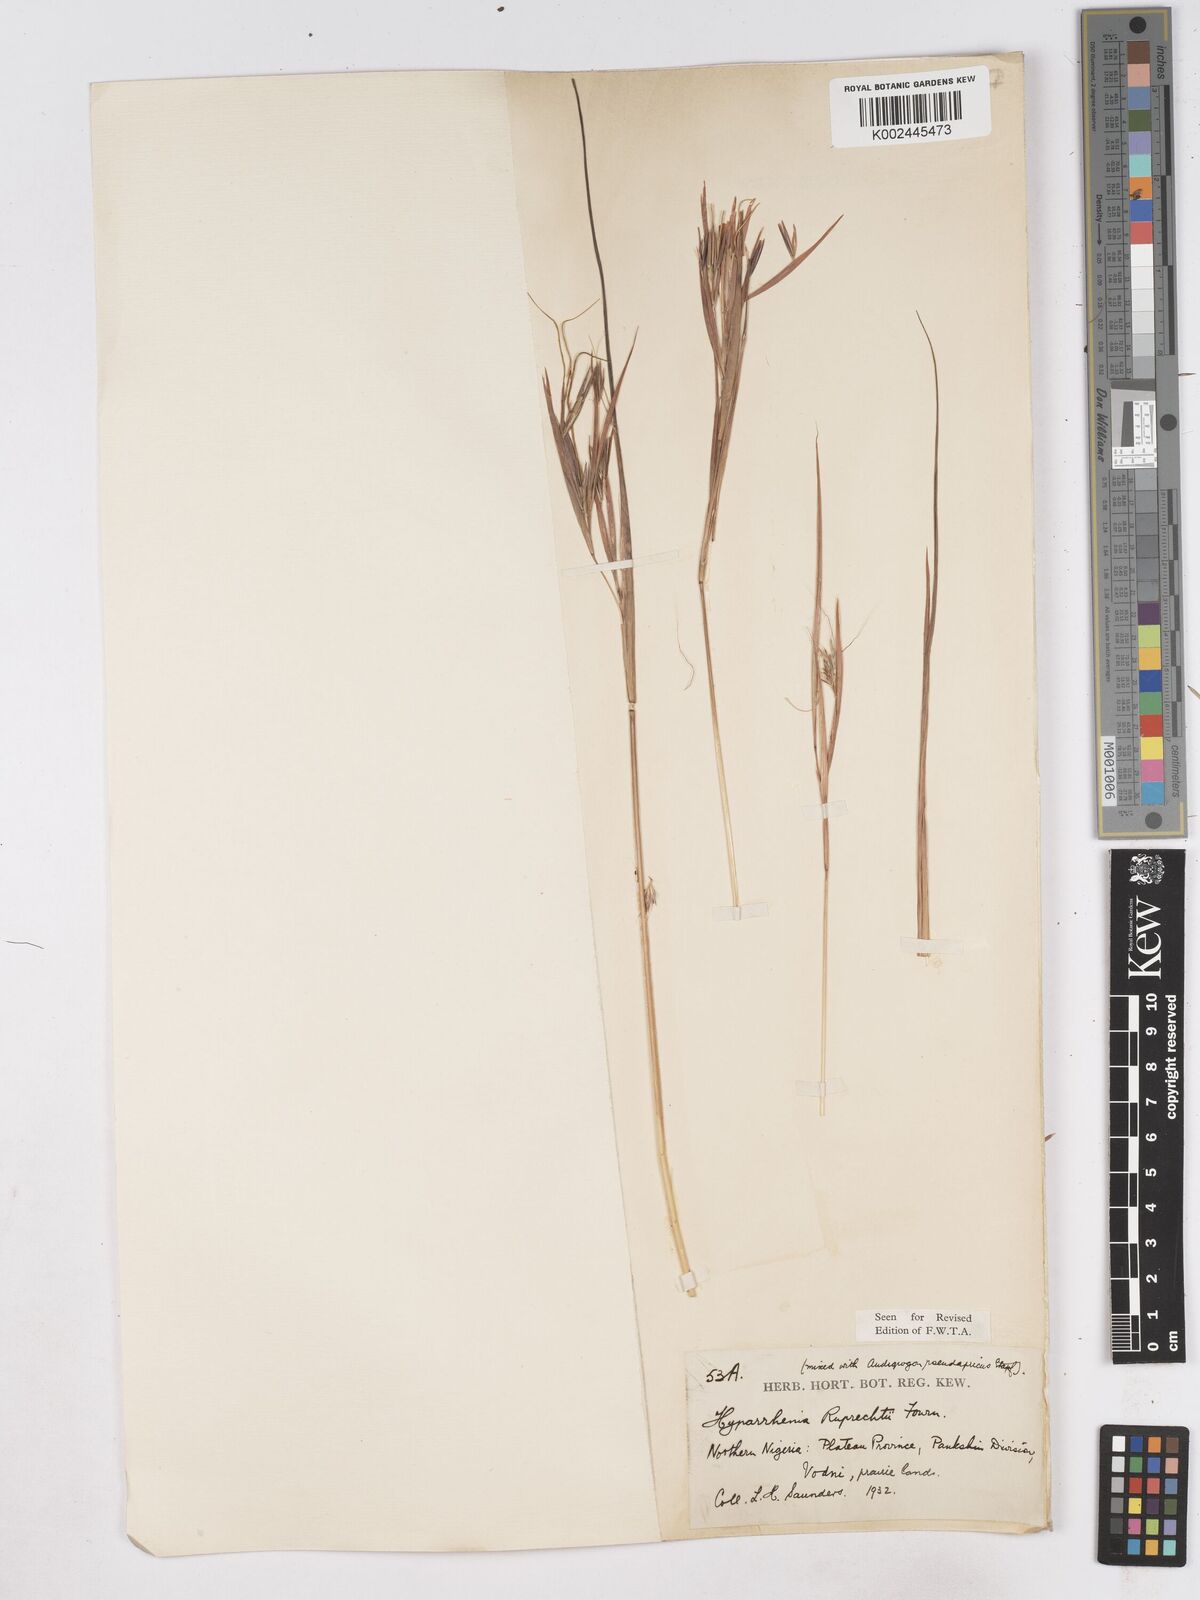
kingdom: Plantae
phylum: Tracheophyta
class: Liliopsida
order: Poales
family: Poaceae
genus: Hyperthelia
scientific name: Hyperthelia dissoluta
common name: Yellow thatching grass
